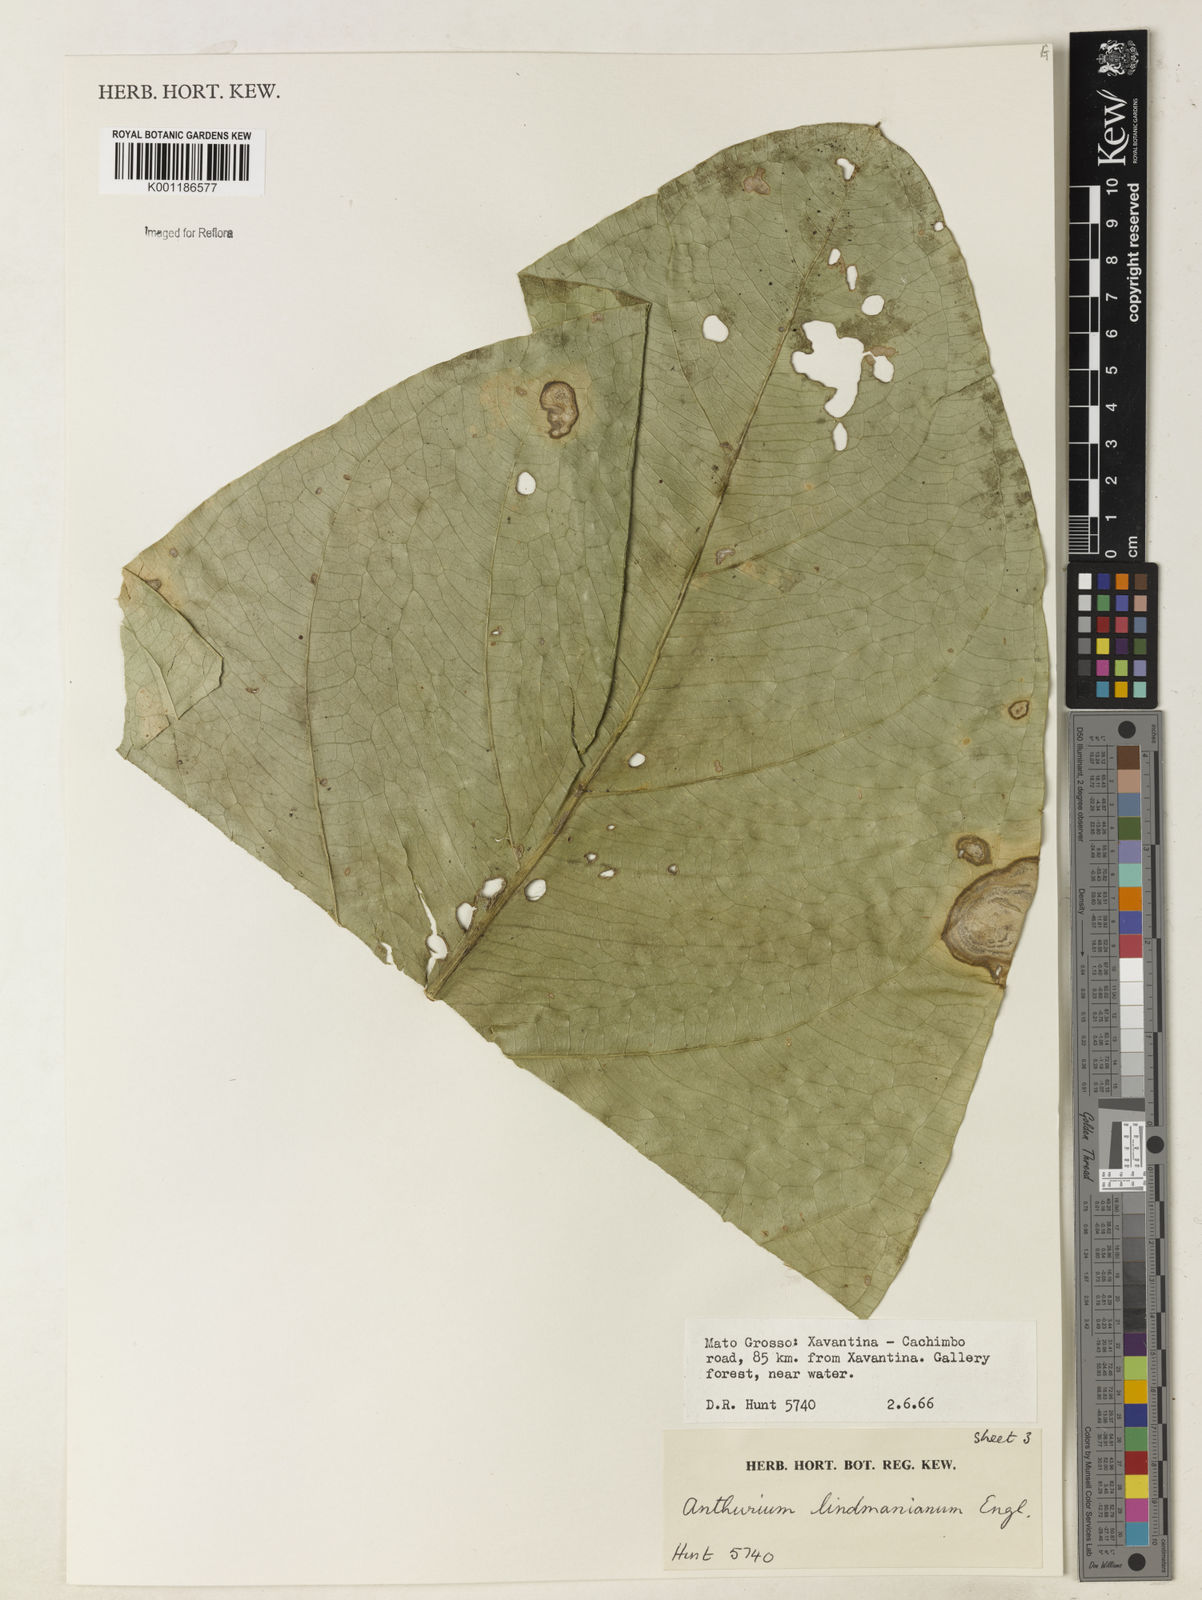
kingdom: Plantae
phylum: Tracheophyta
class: Liliopsida
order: Alismatales
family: Araceae
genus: Anthurium
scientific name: Anthurium lindmanianum
